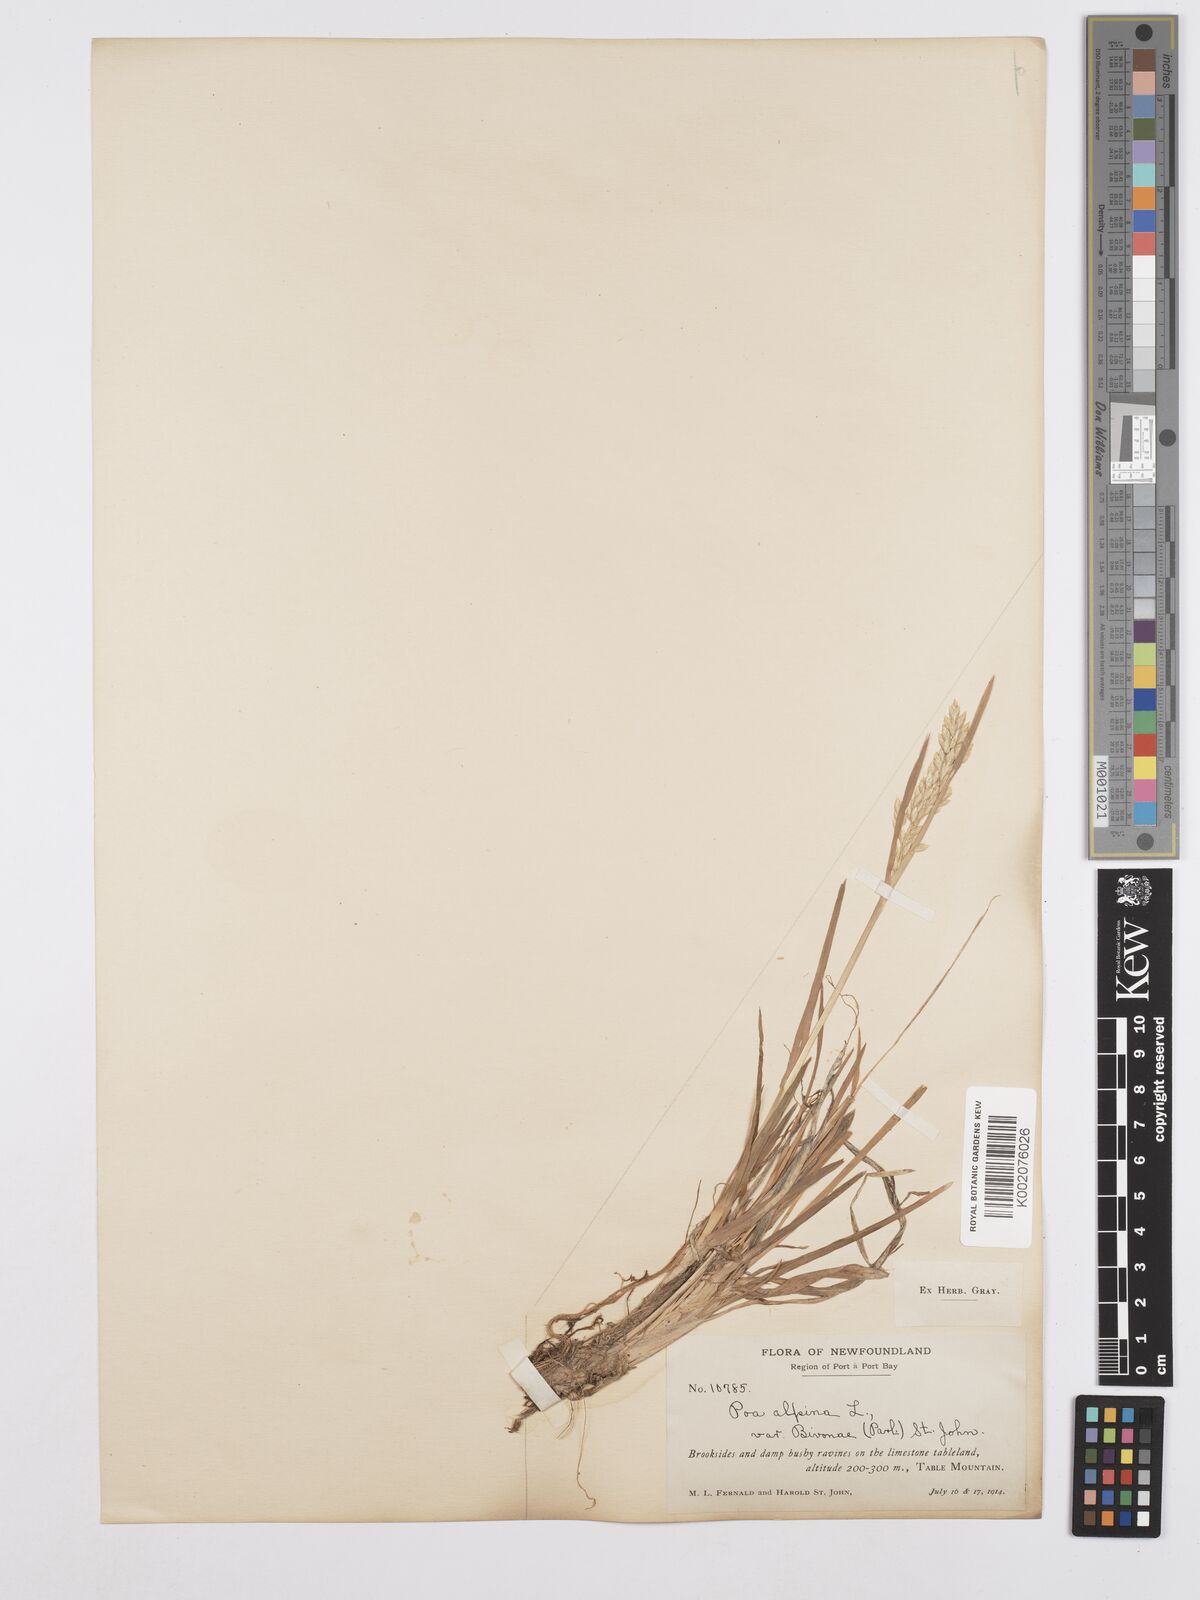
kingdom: Plantae
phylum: Tracheophyta
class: Liliopsida
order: Poales
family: Poaceae
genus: Poa
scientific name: Poa alpina
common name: Alpine bluegrass
